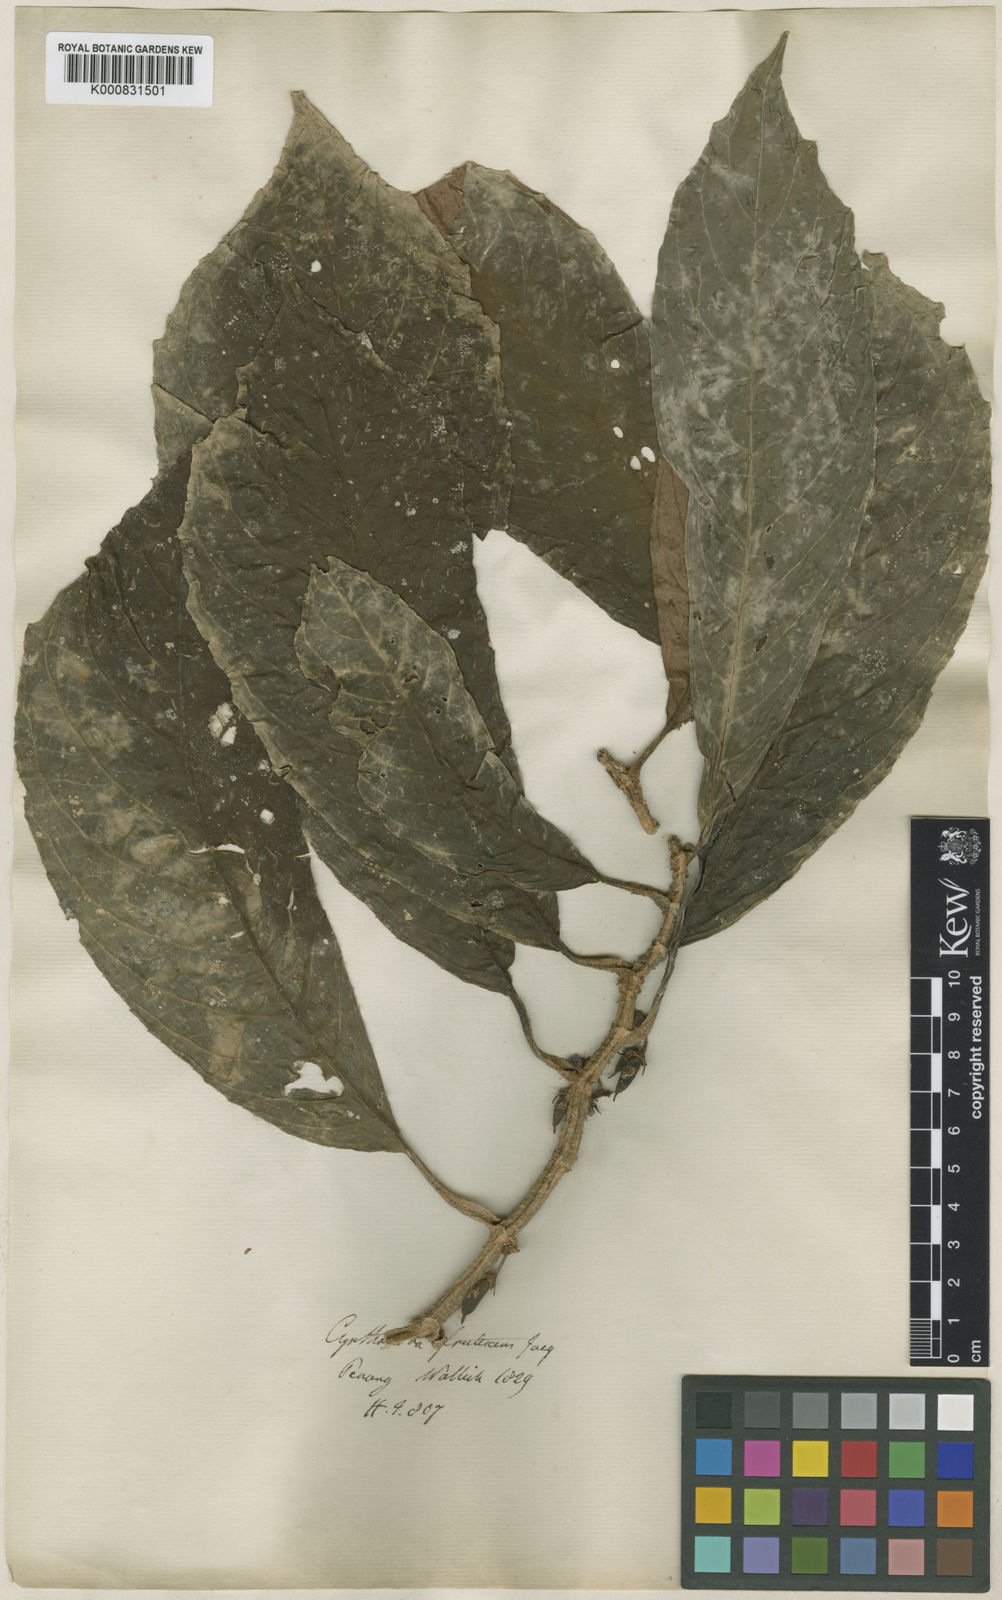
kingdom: Plantae
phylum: Tracheophyta
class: Magnoliopsida
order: Lamiales
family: Gesneriaceae
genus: Cyrtandra
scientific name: Cyrtandra dispar
